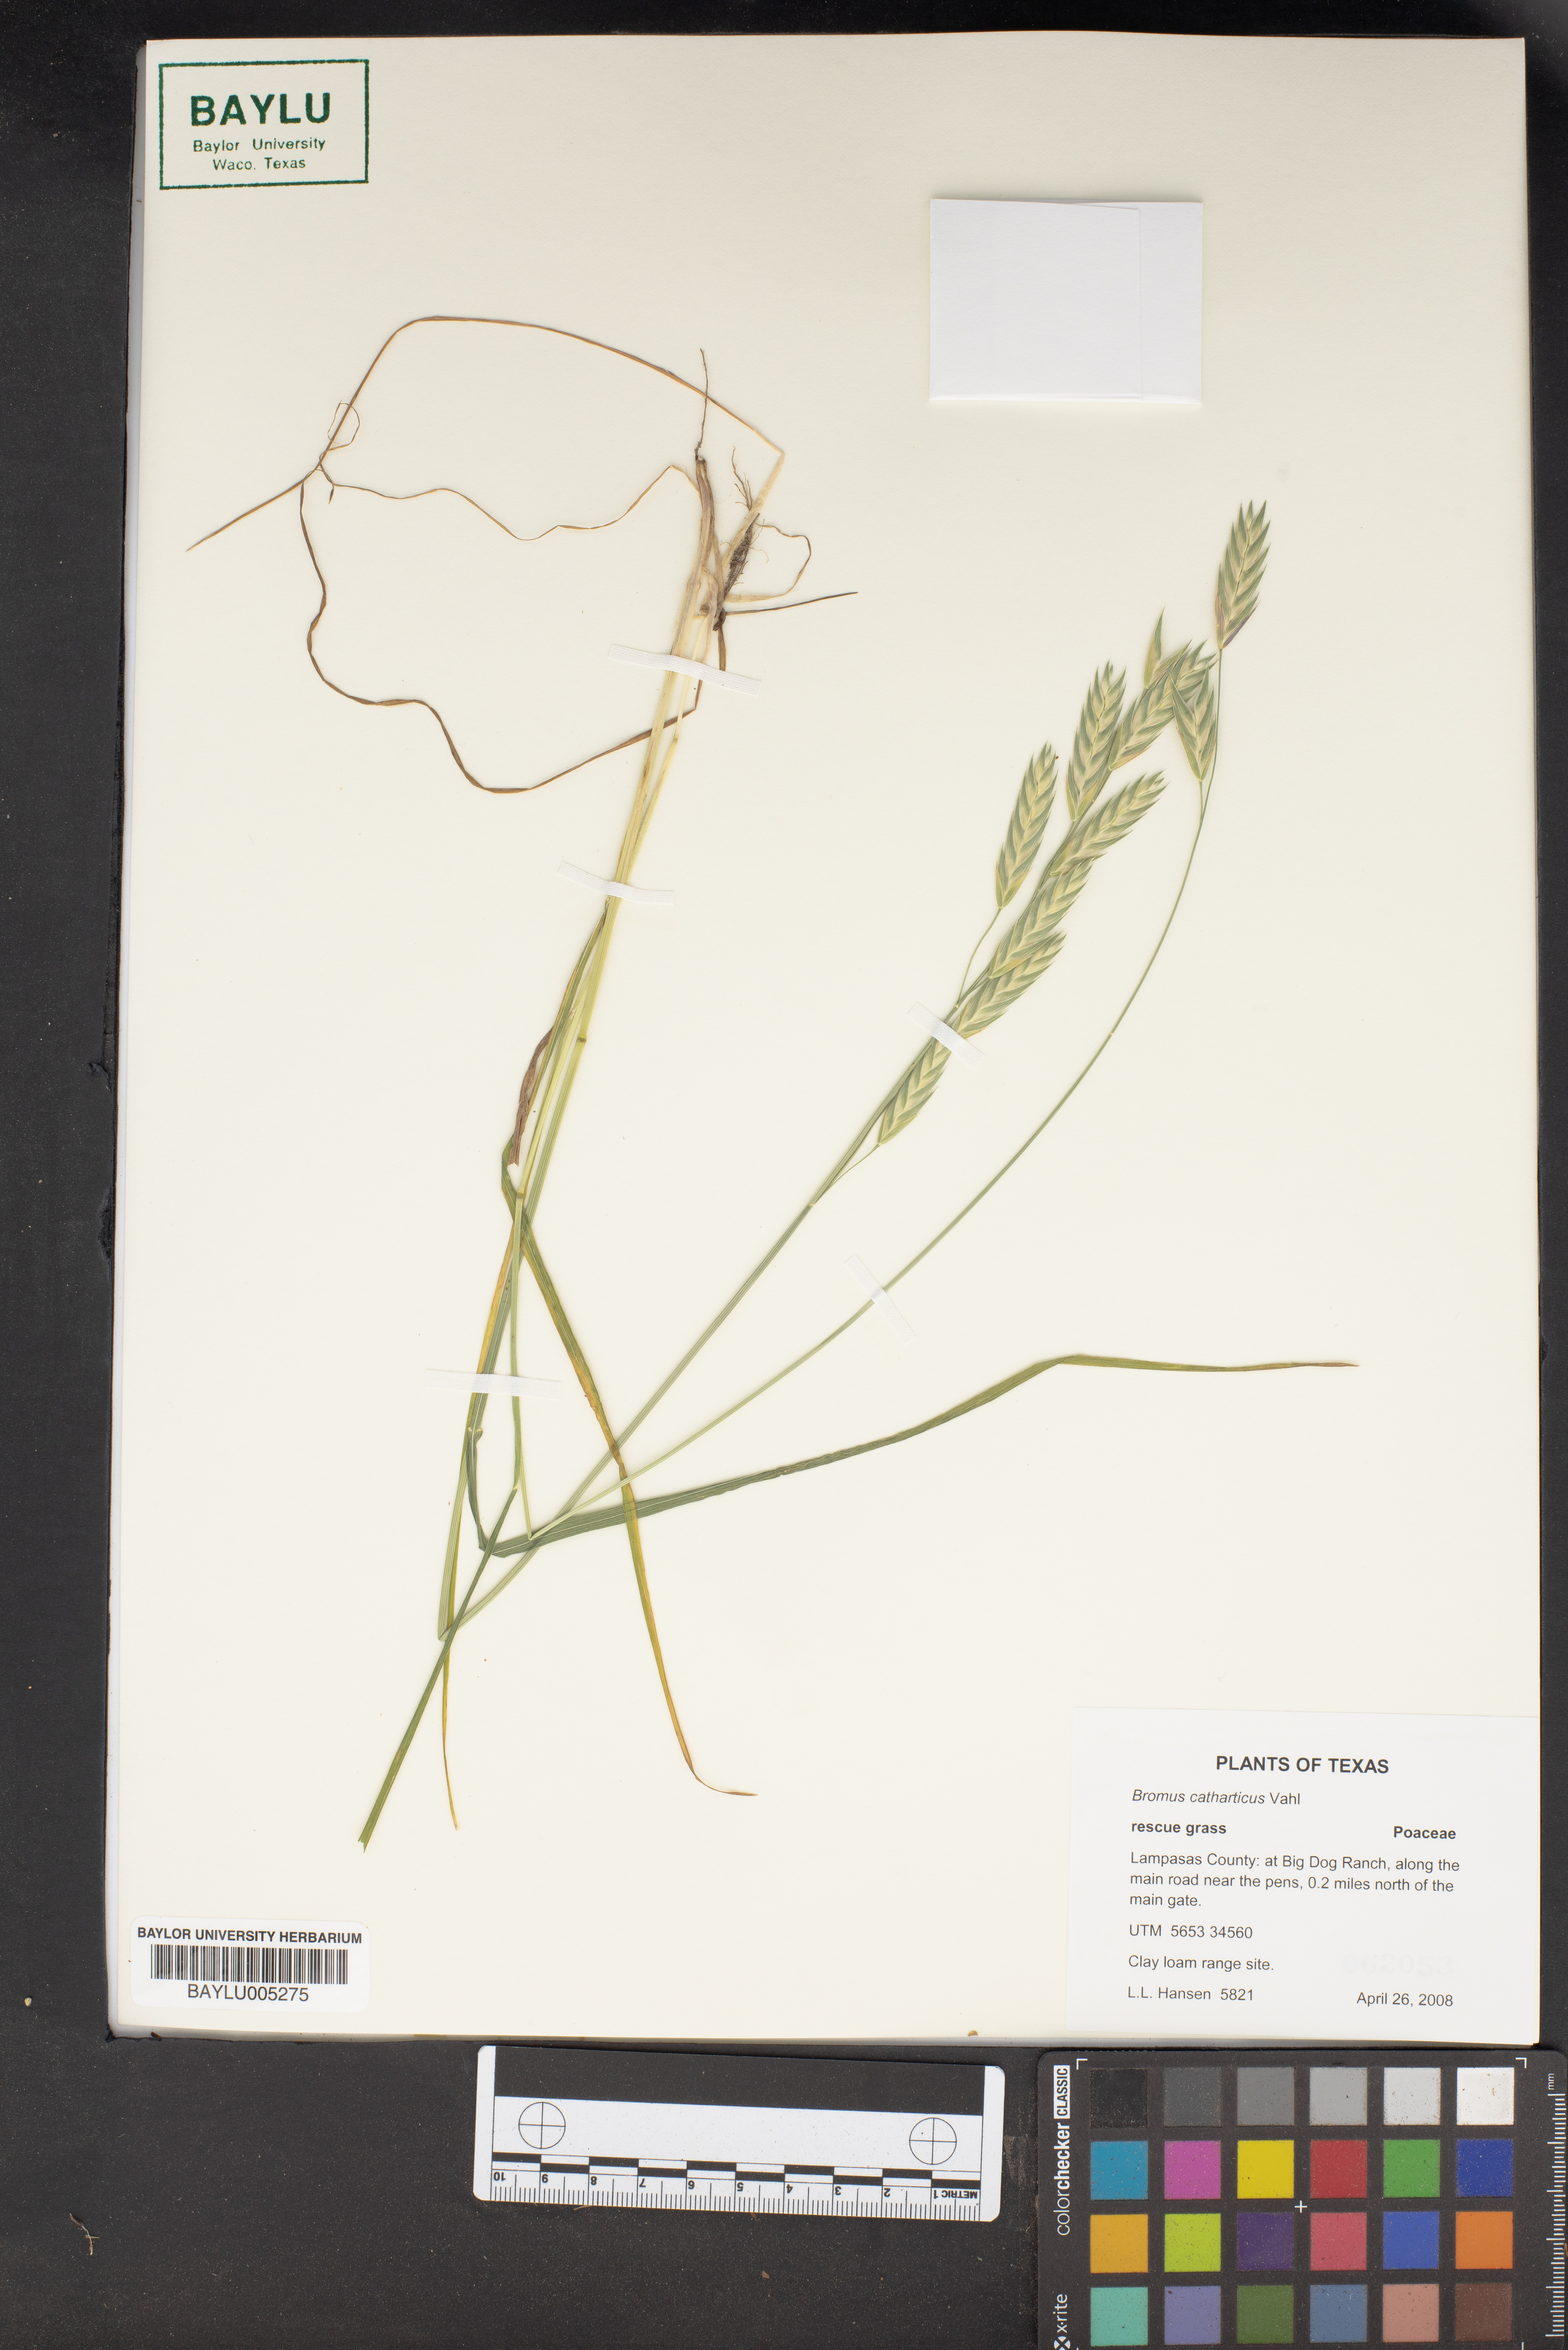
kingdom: Plantae
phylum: Tracheophyta
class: Liliopsida
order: Poales
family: Poaceae
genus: Bromus
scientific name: Bromus catharticus
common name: Rescuegrass
